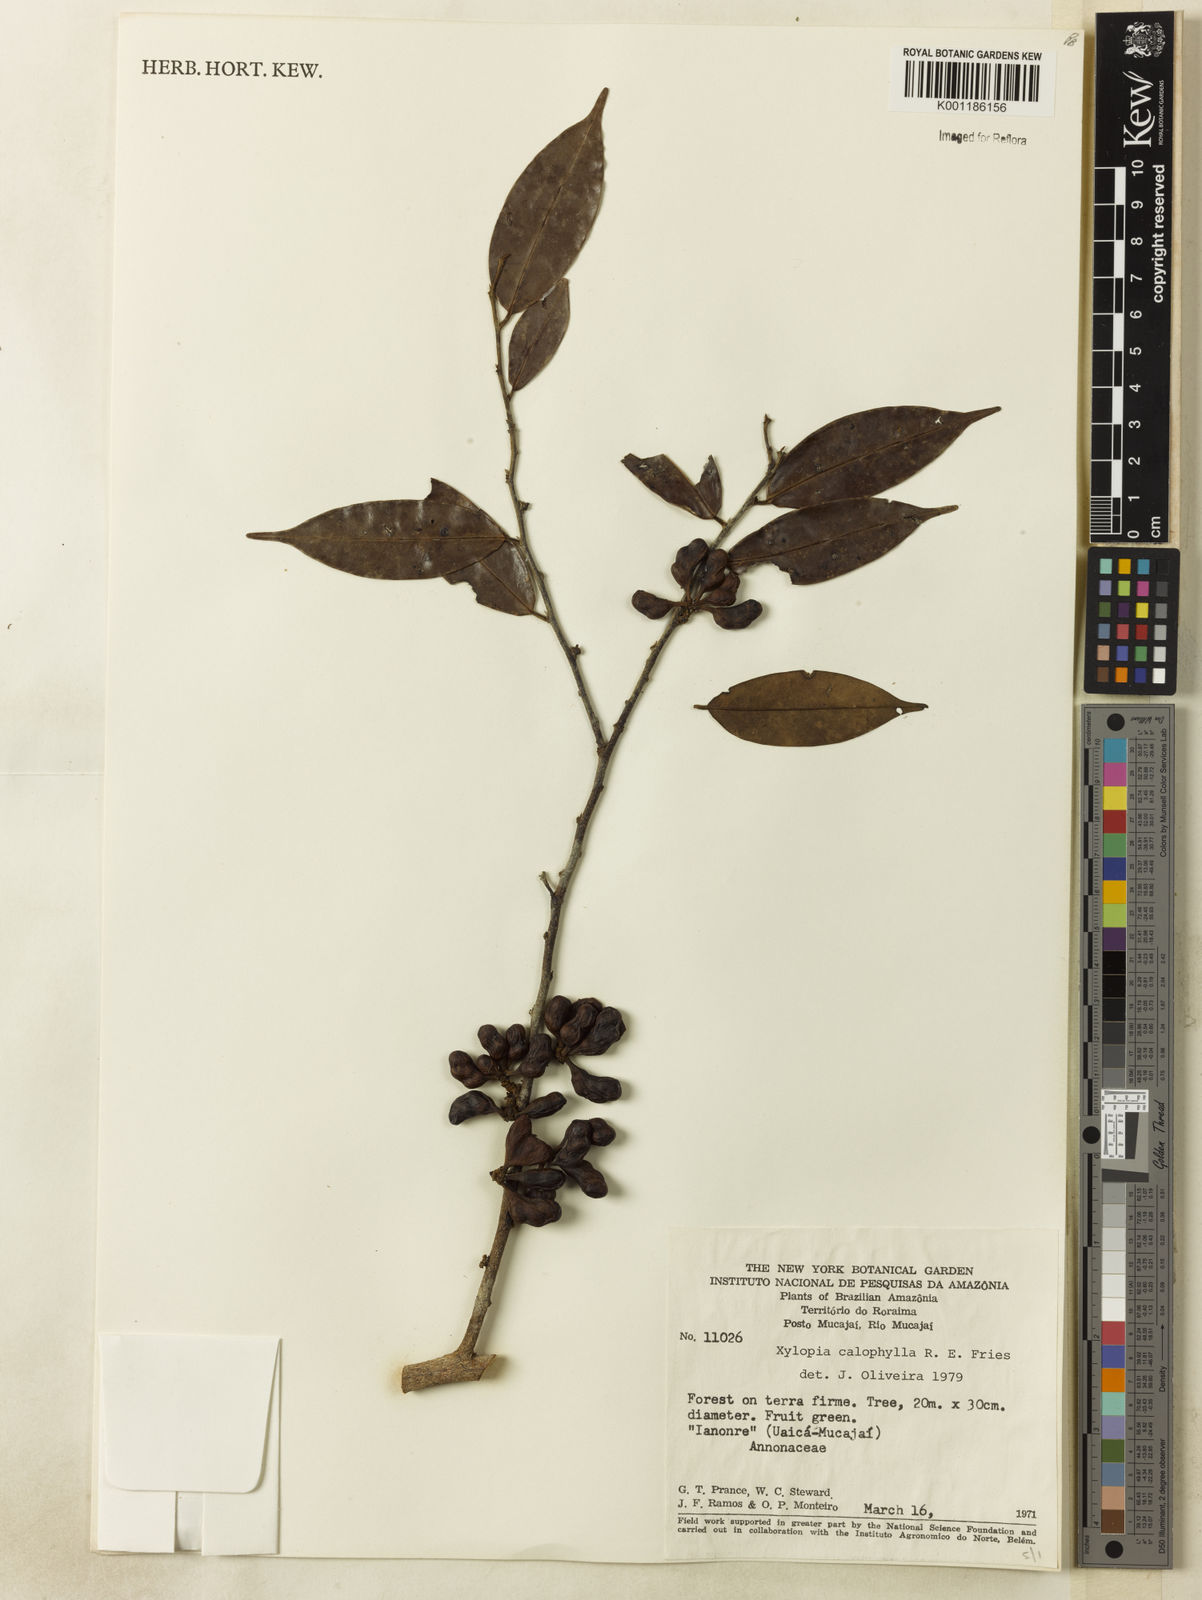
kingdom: Plantae
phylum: Tracheophyta
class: Magnoliopsida
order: Magnoliales
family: Annonaceae
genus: Xylopia
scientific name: Xylopia calophylla
